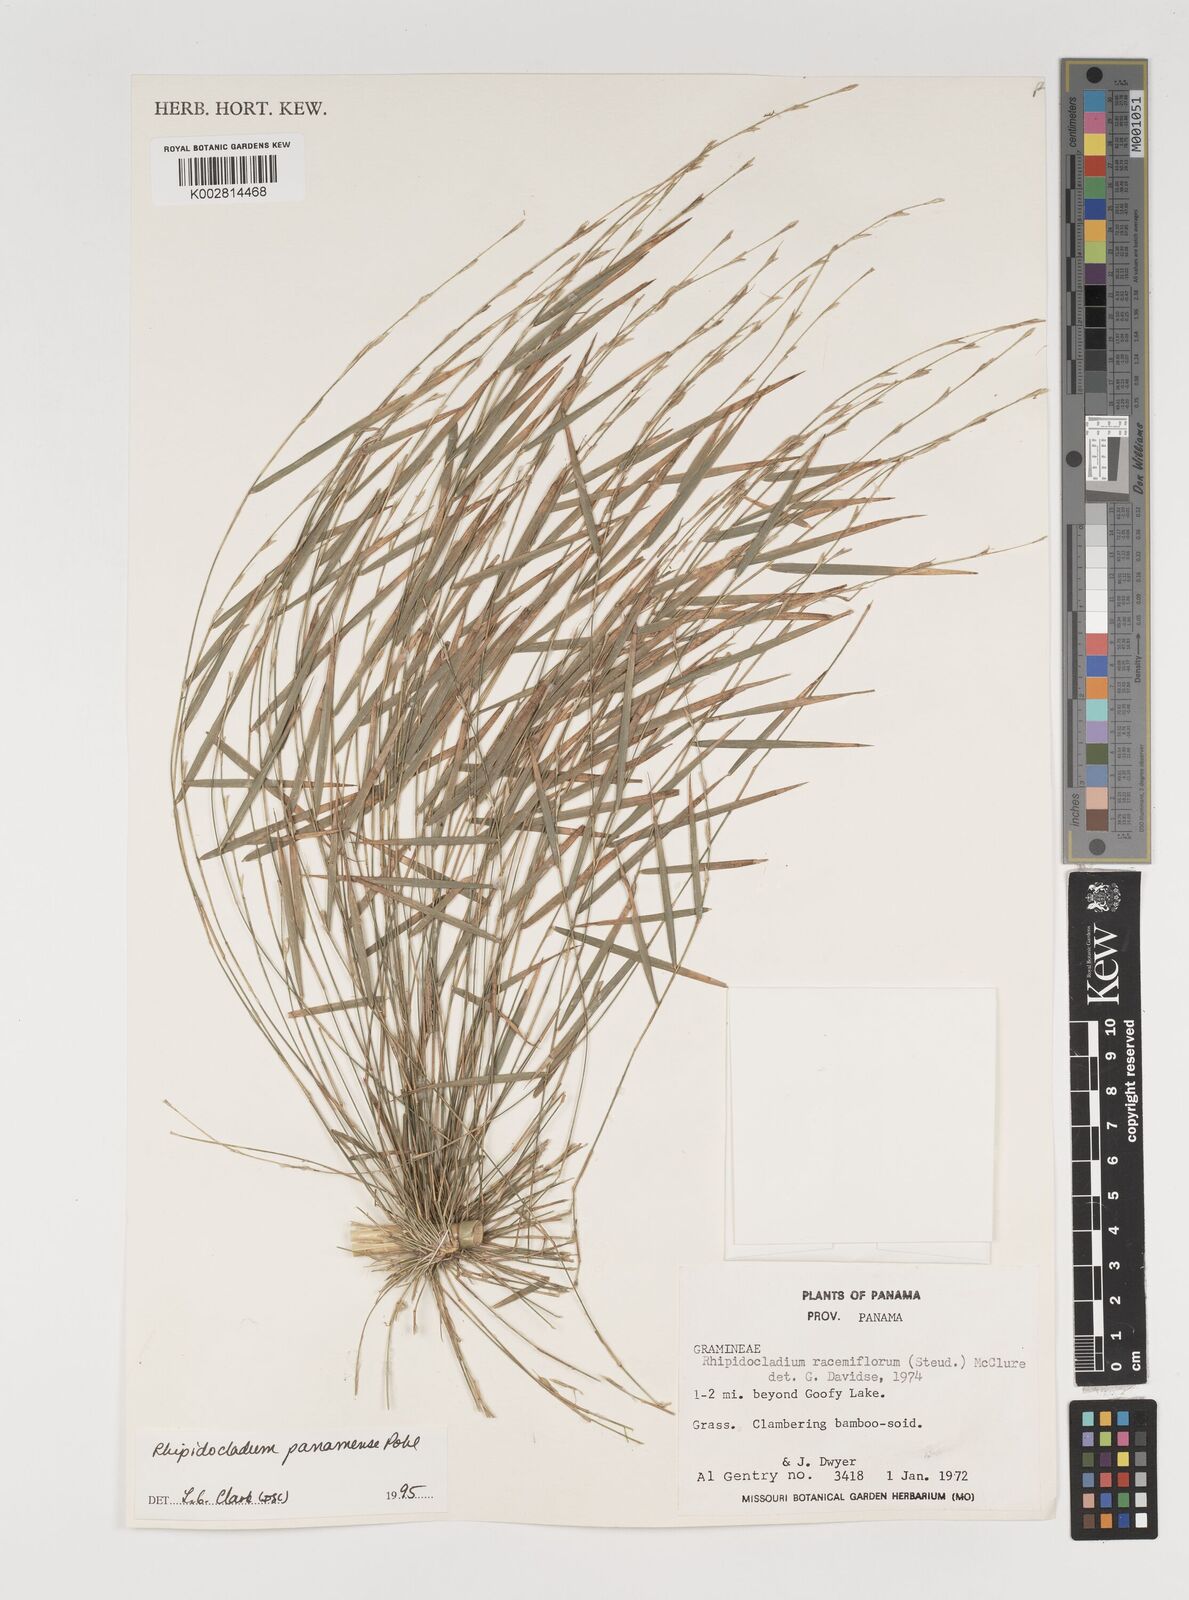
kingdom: Plantae
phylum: Tracheophyta
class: Liliopsida
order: Poales
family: Poaceae
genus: Rhipidocladum
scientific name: Rhipidocladum panamense
